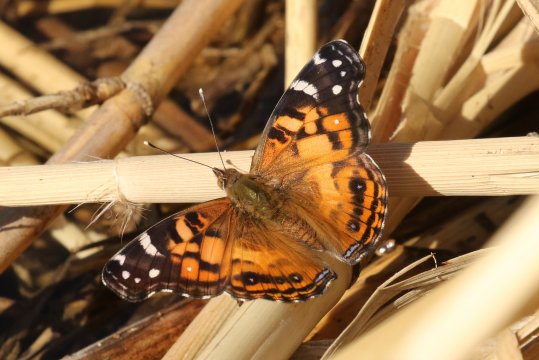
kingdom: Animalia
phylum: Arthropoda
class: Insecta
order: Lepidoptera
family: Nymphalidae
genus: Vanessa
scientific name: Vanessa virginiensis
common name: American Lady
